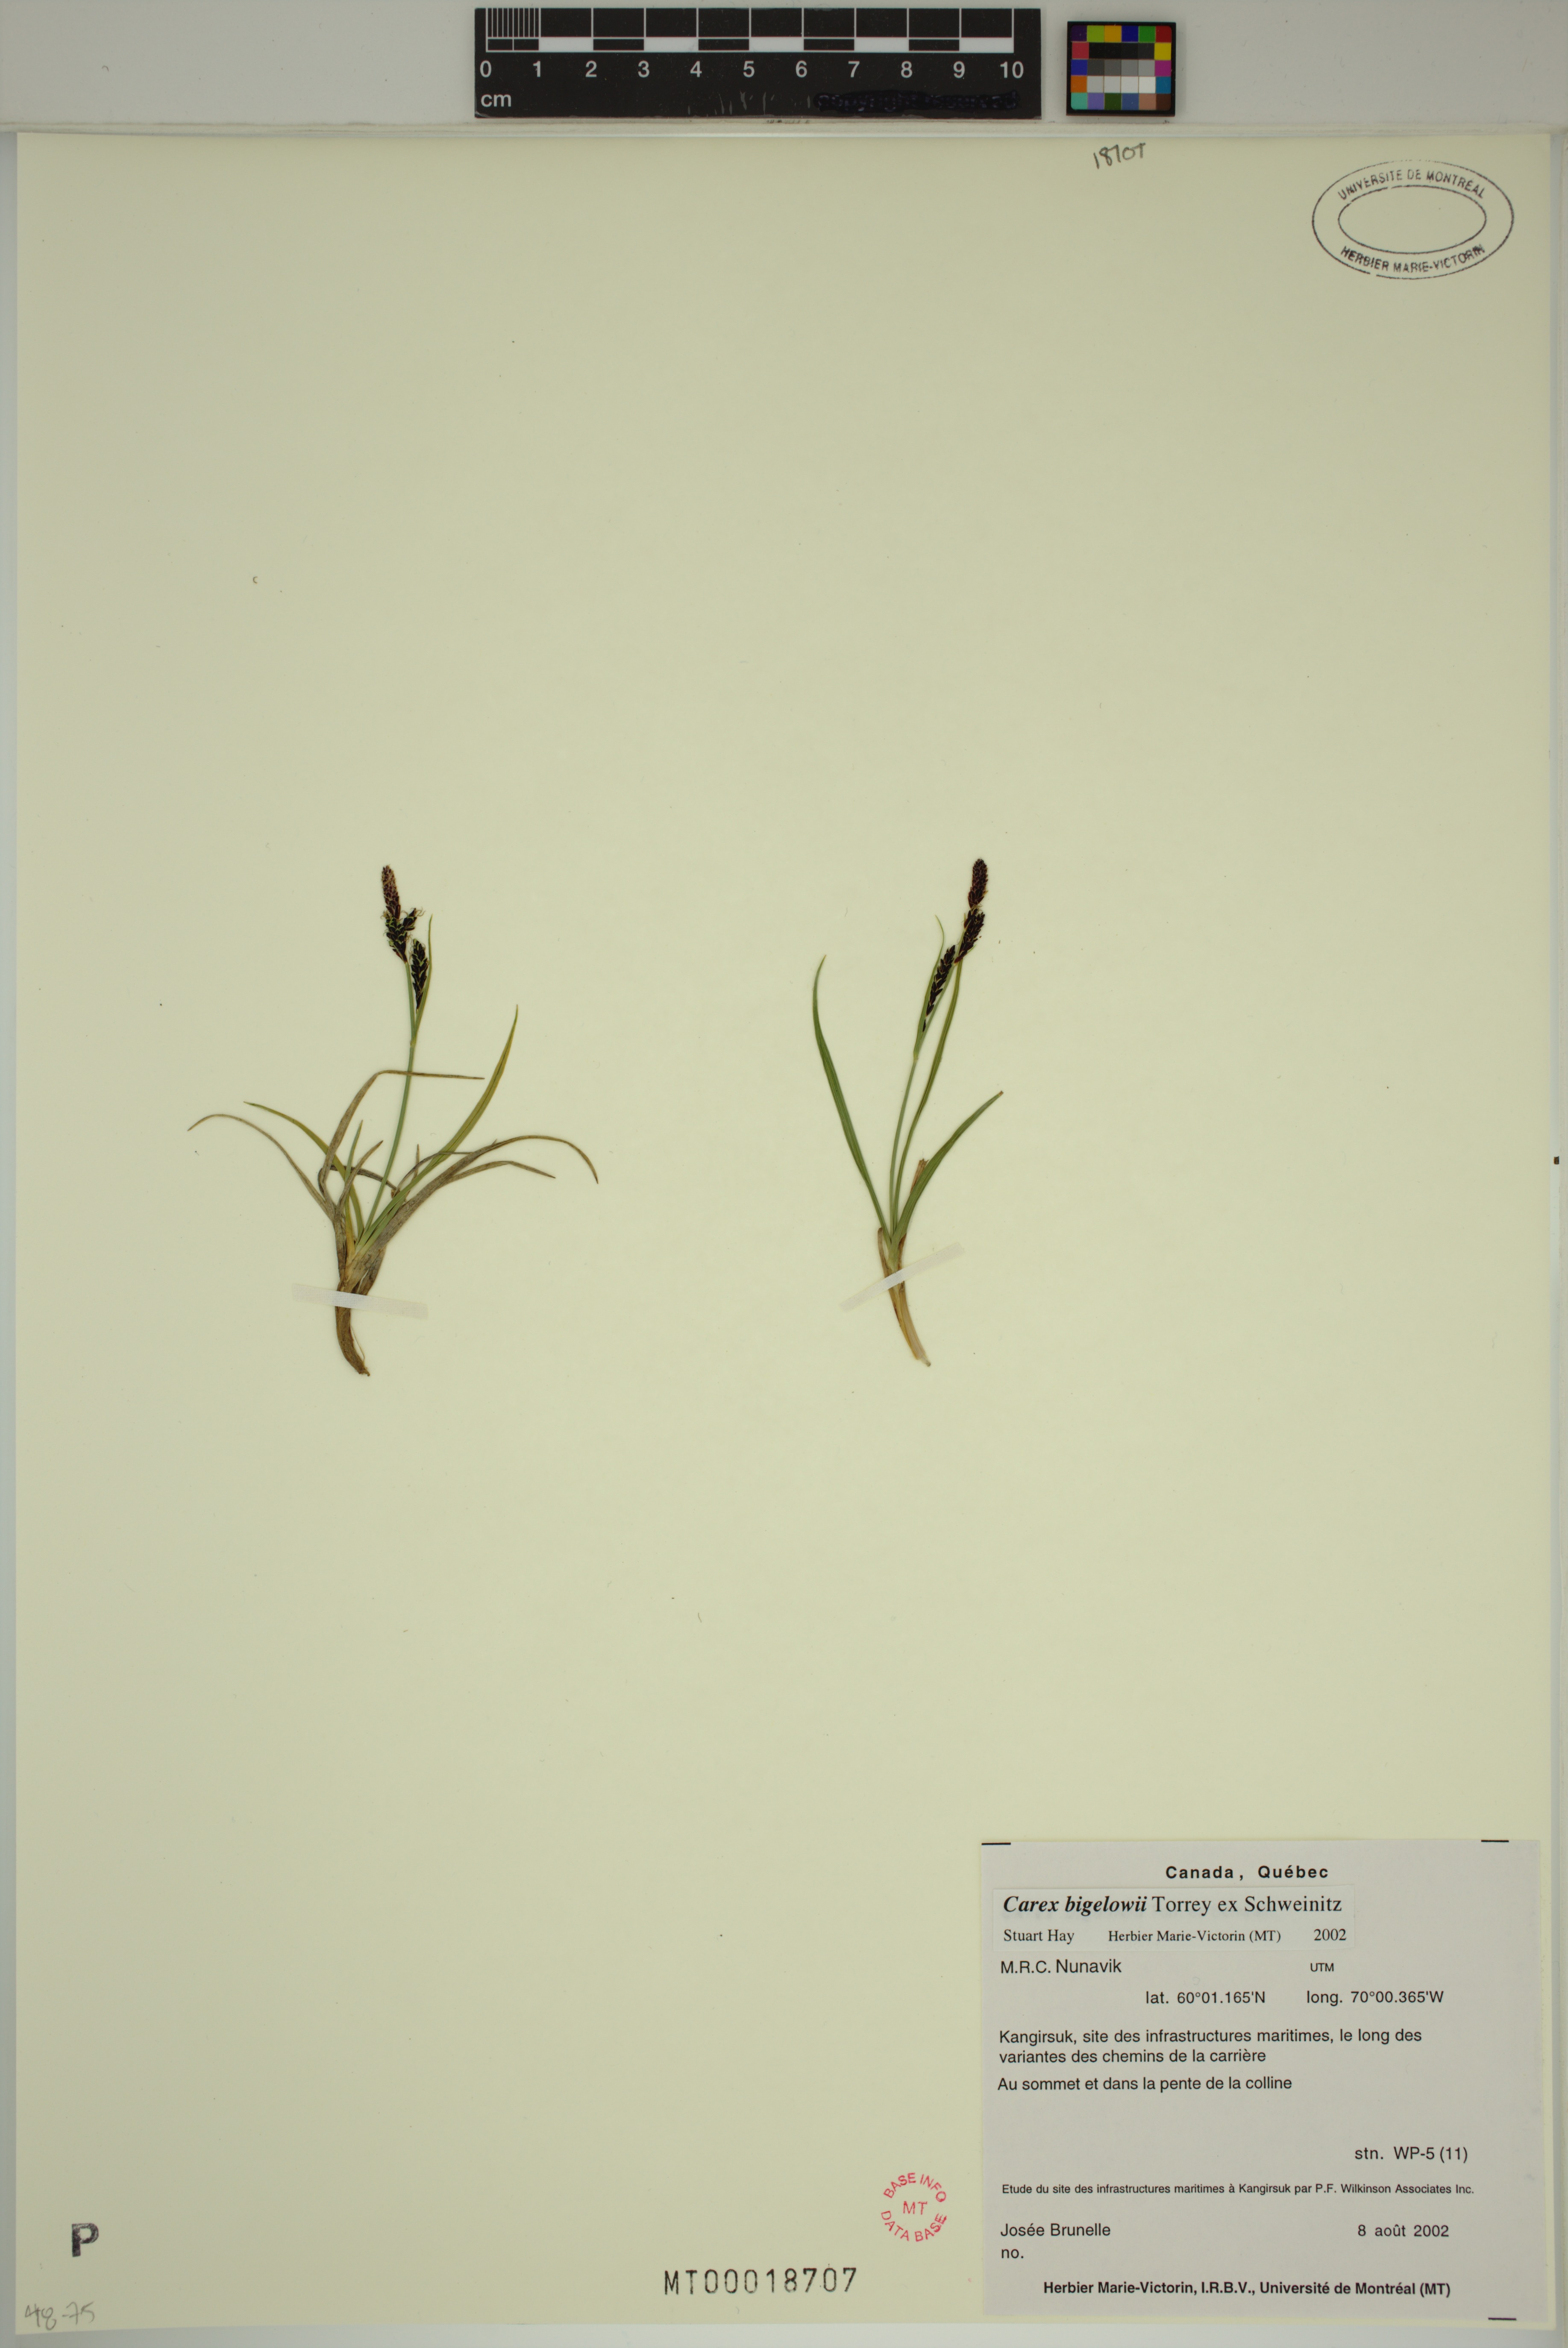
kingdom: Plantae
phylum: Tracheophyta
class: Liliopsida
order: Poales
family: Cyperaceae
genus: Carex
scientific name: Carex bigelowii
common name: Stiff sedge
